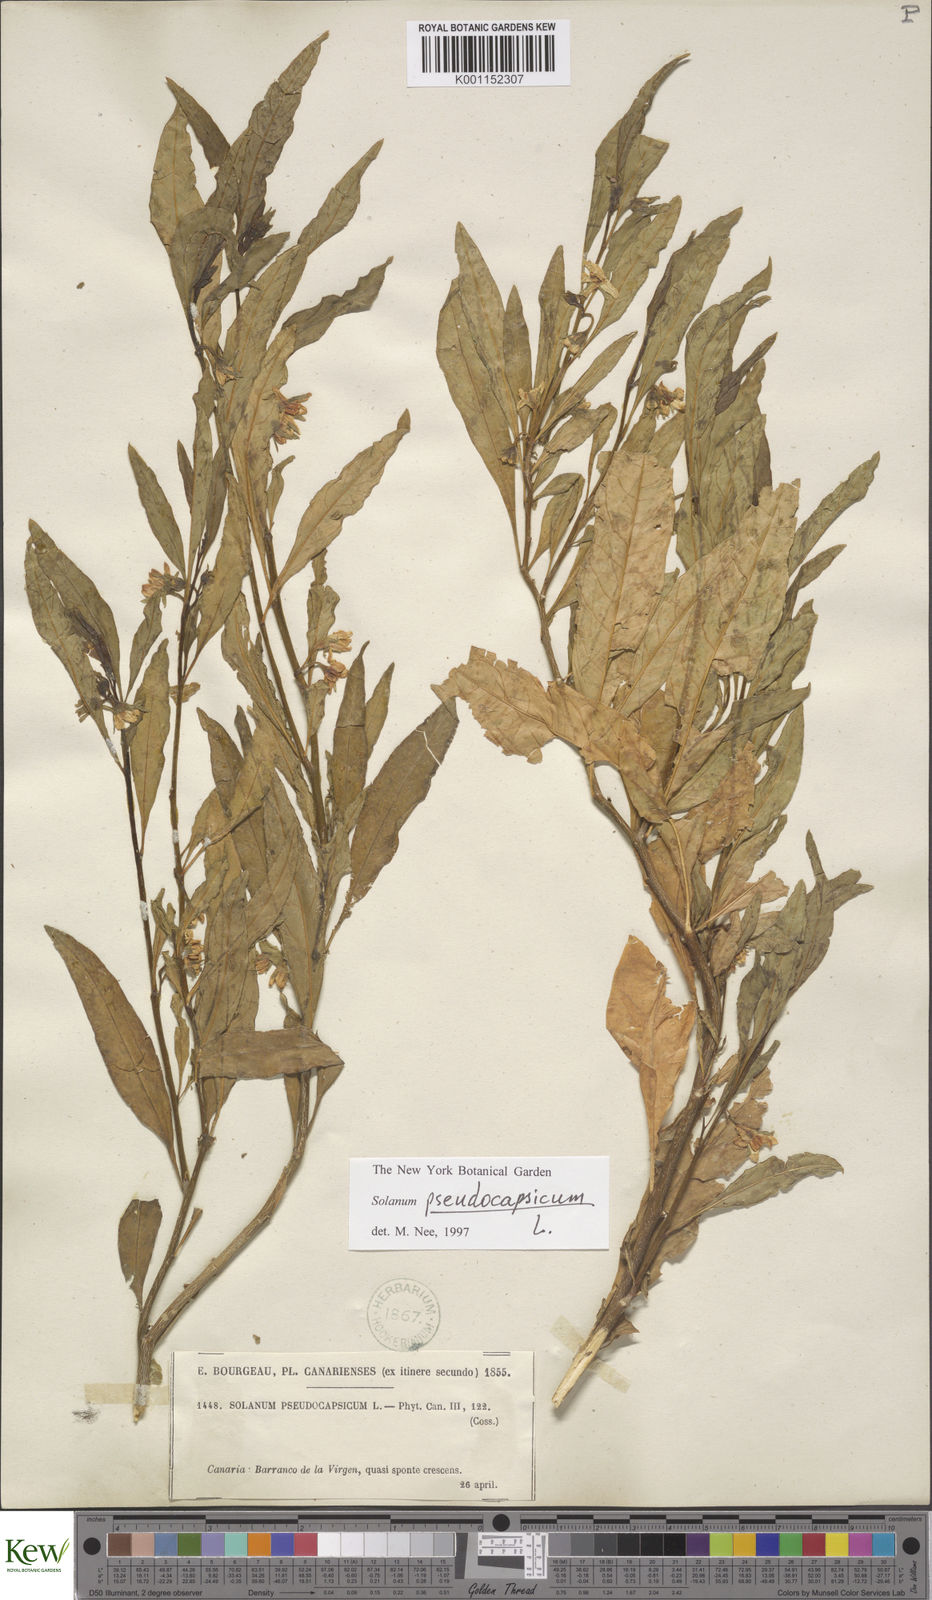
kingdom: Plantae
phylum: Tracheophyta
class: Magnoliopsida
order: Solanales
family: Solanaceae
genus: Solanum
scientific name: Solanum pseudocapsicum
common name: Jerusalem cherry
